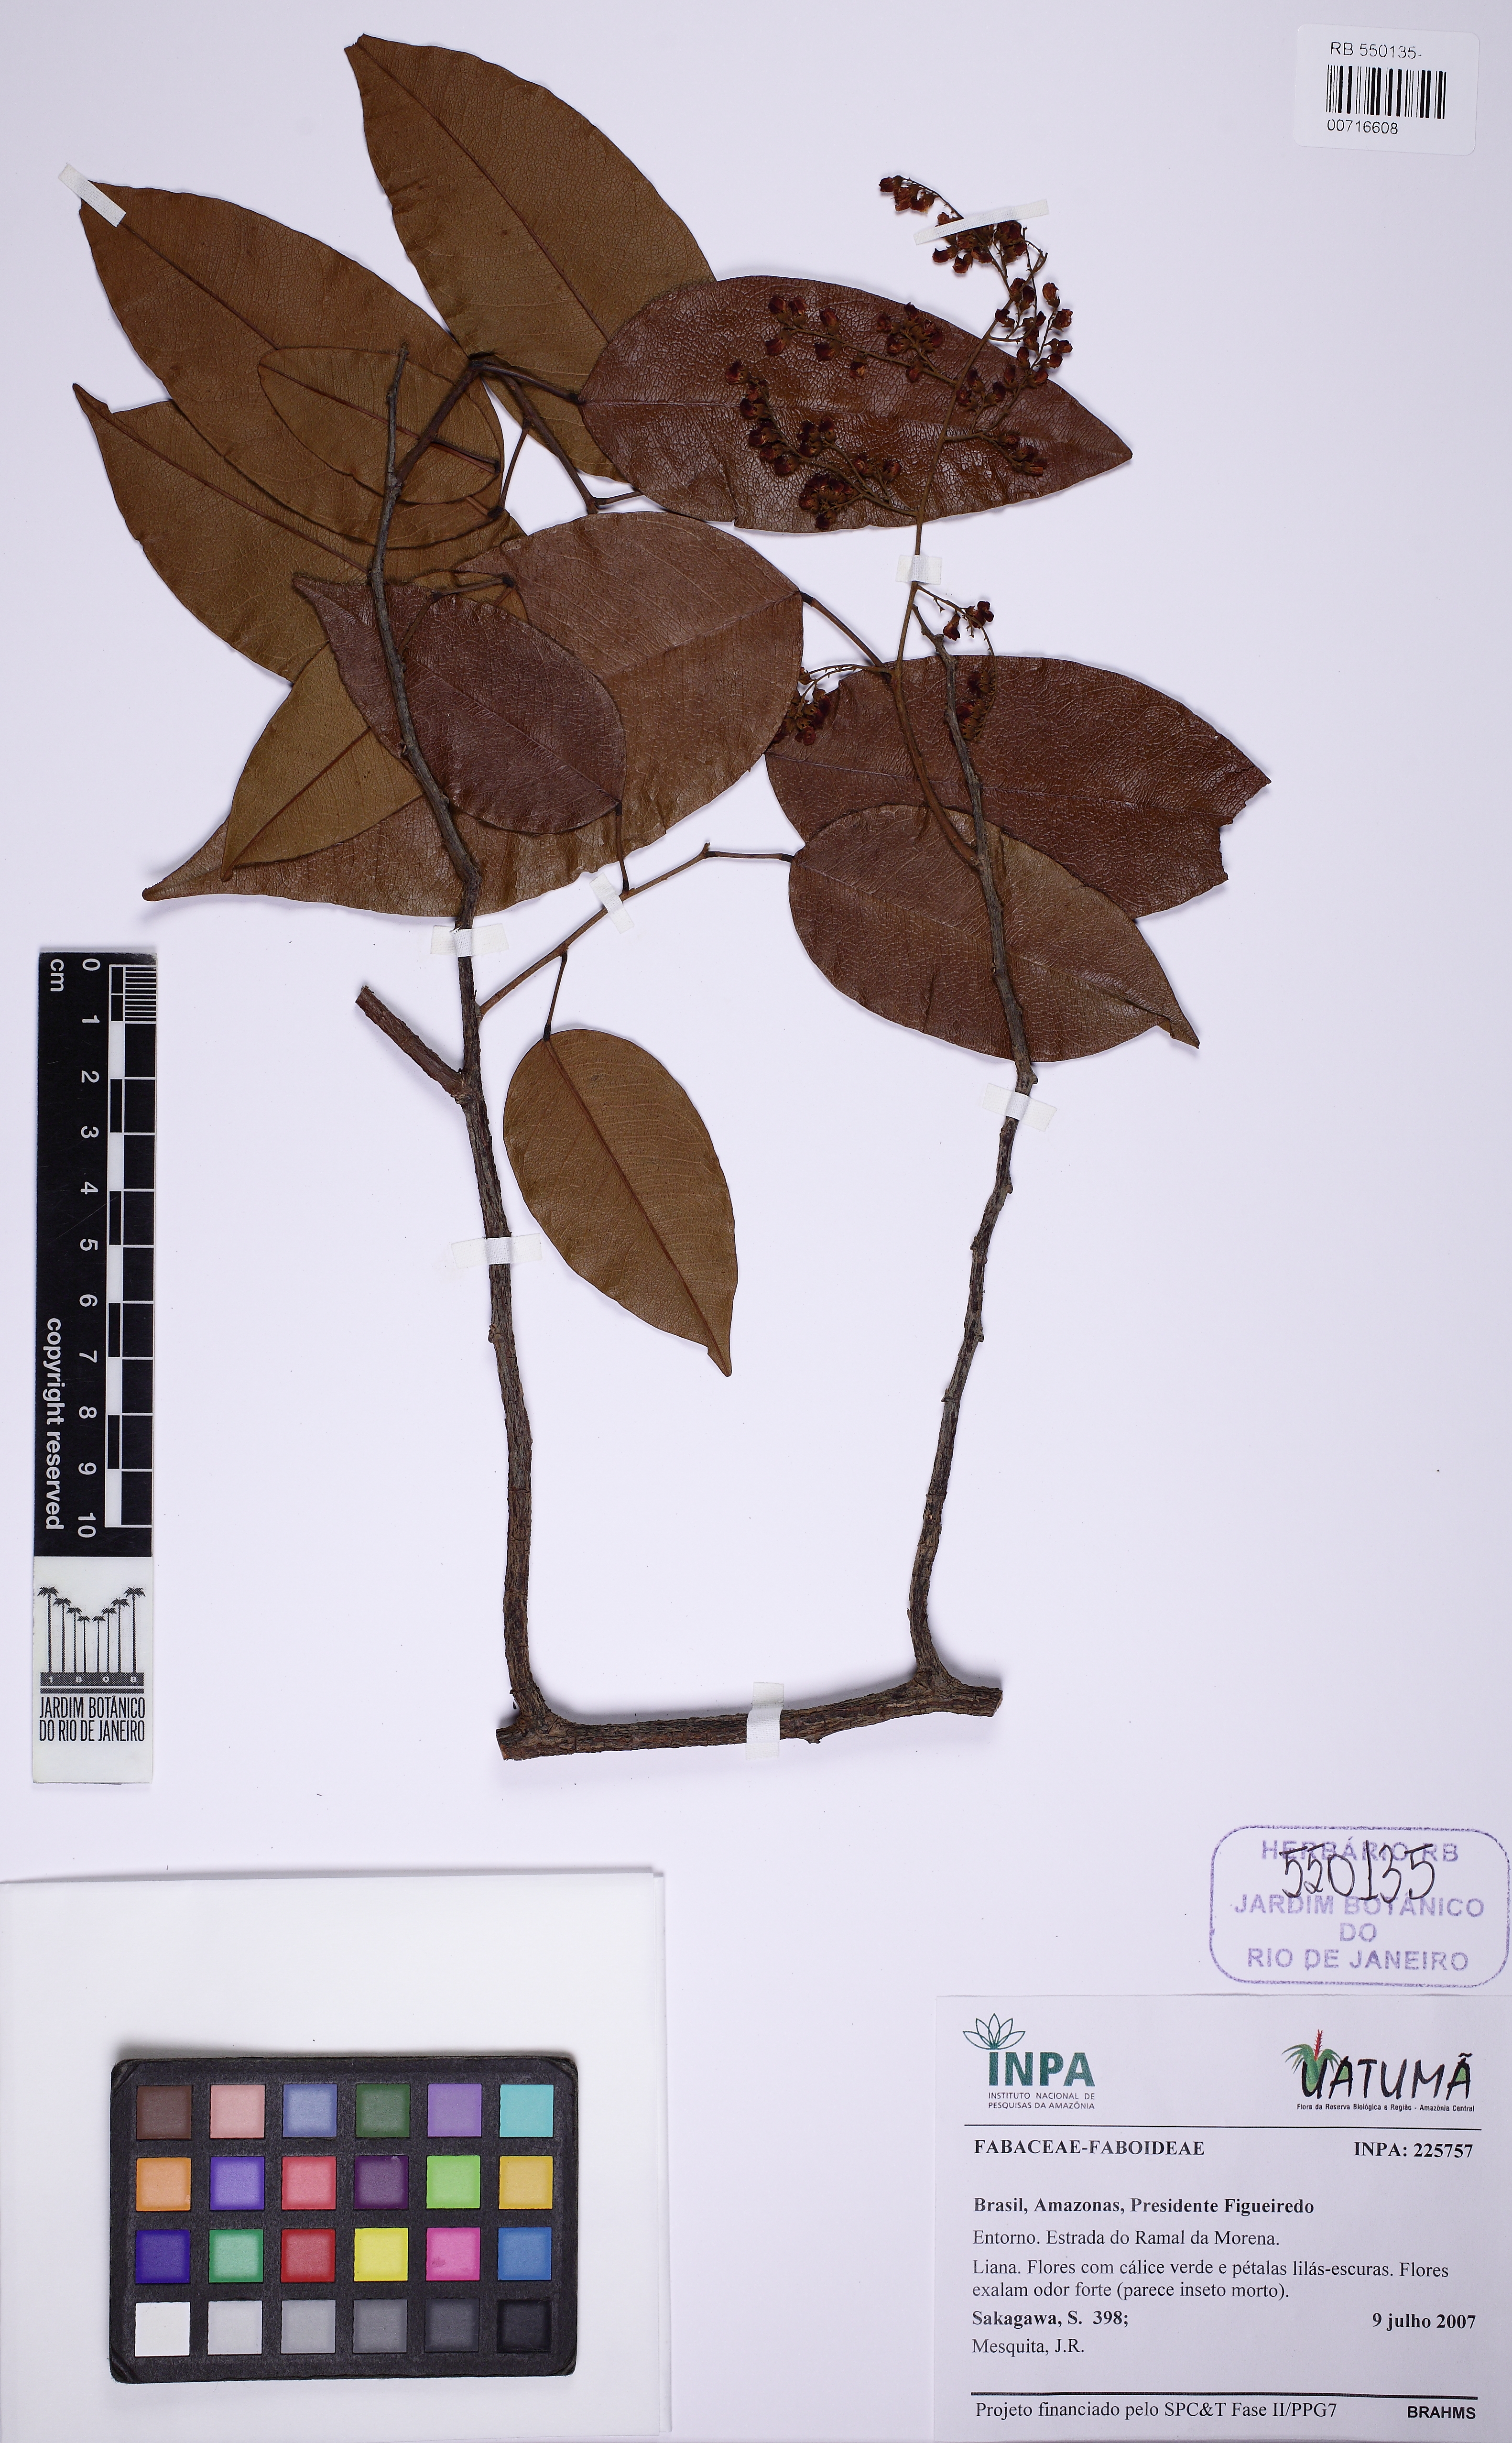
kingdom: Plantae
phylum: Tracheophyta
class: Magnoliopsida
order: Fabales
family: Fabaceae
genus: Dalbergia
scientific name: Dalbergia
